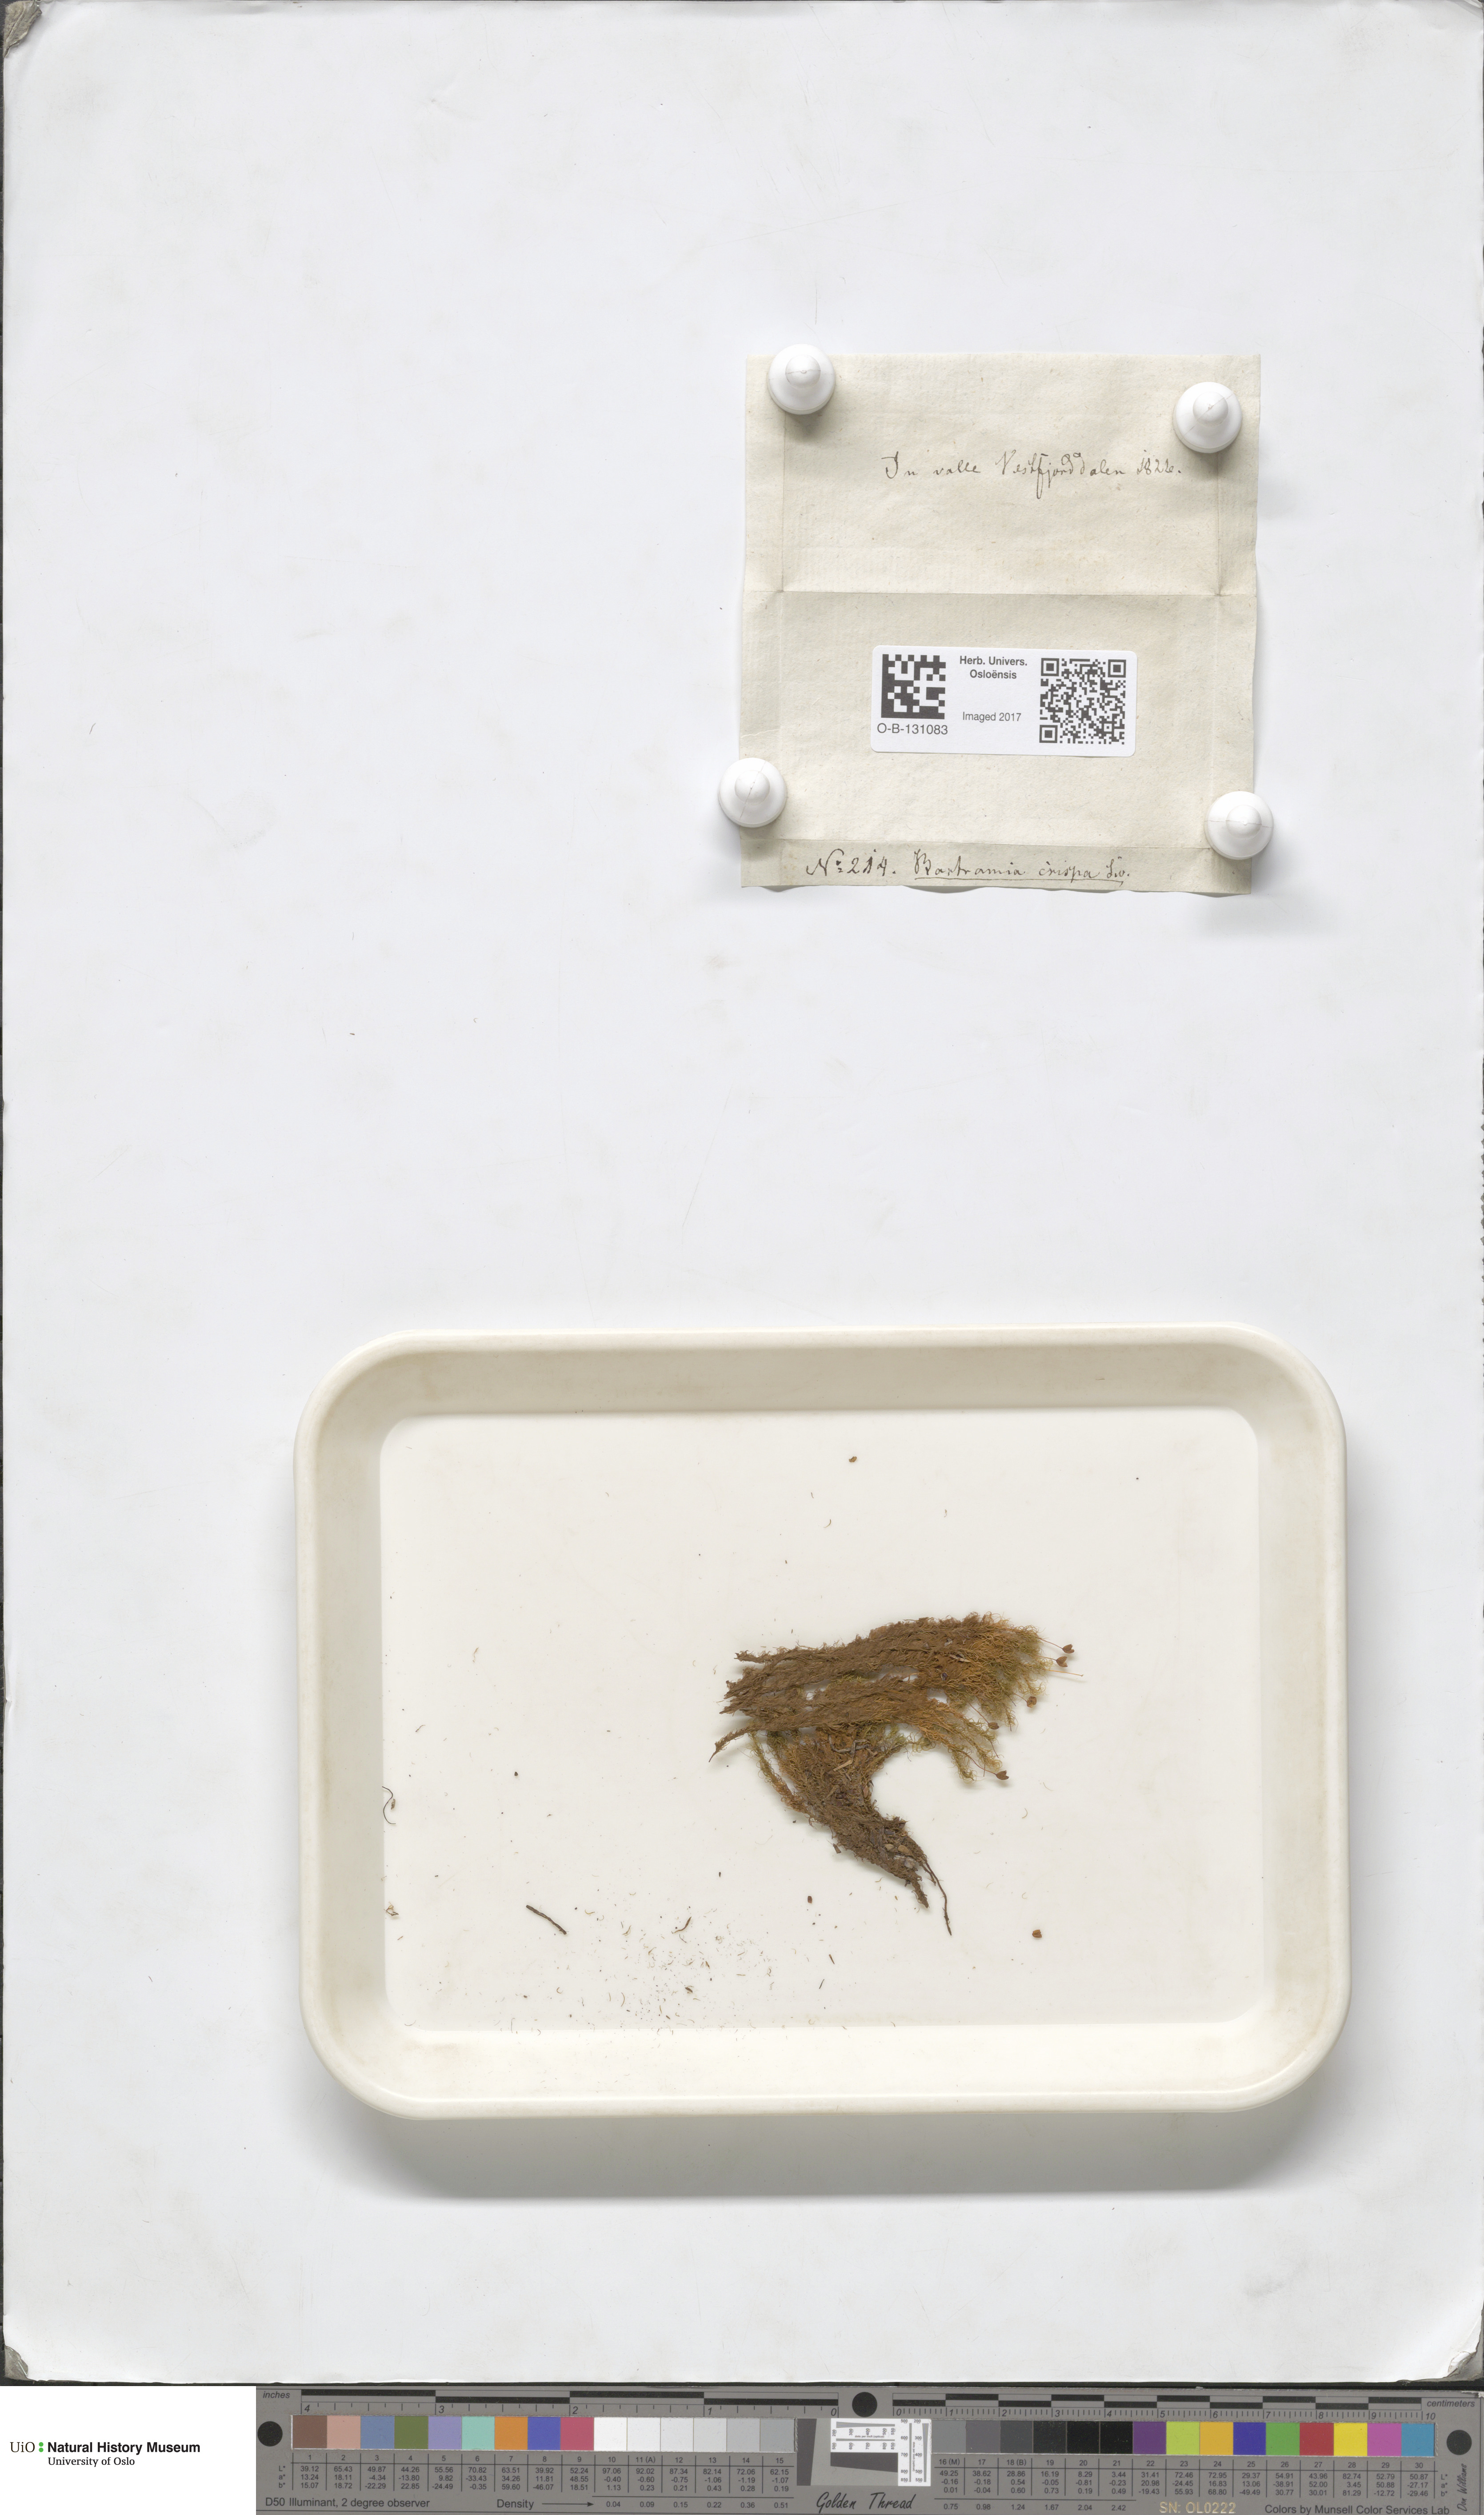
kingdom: Plantae
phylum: Bryophyta
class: Bryopsida
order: Bartramiales
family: Bartramiaceae
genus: Bartramia
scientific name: Bartramia pomiformis
